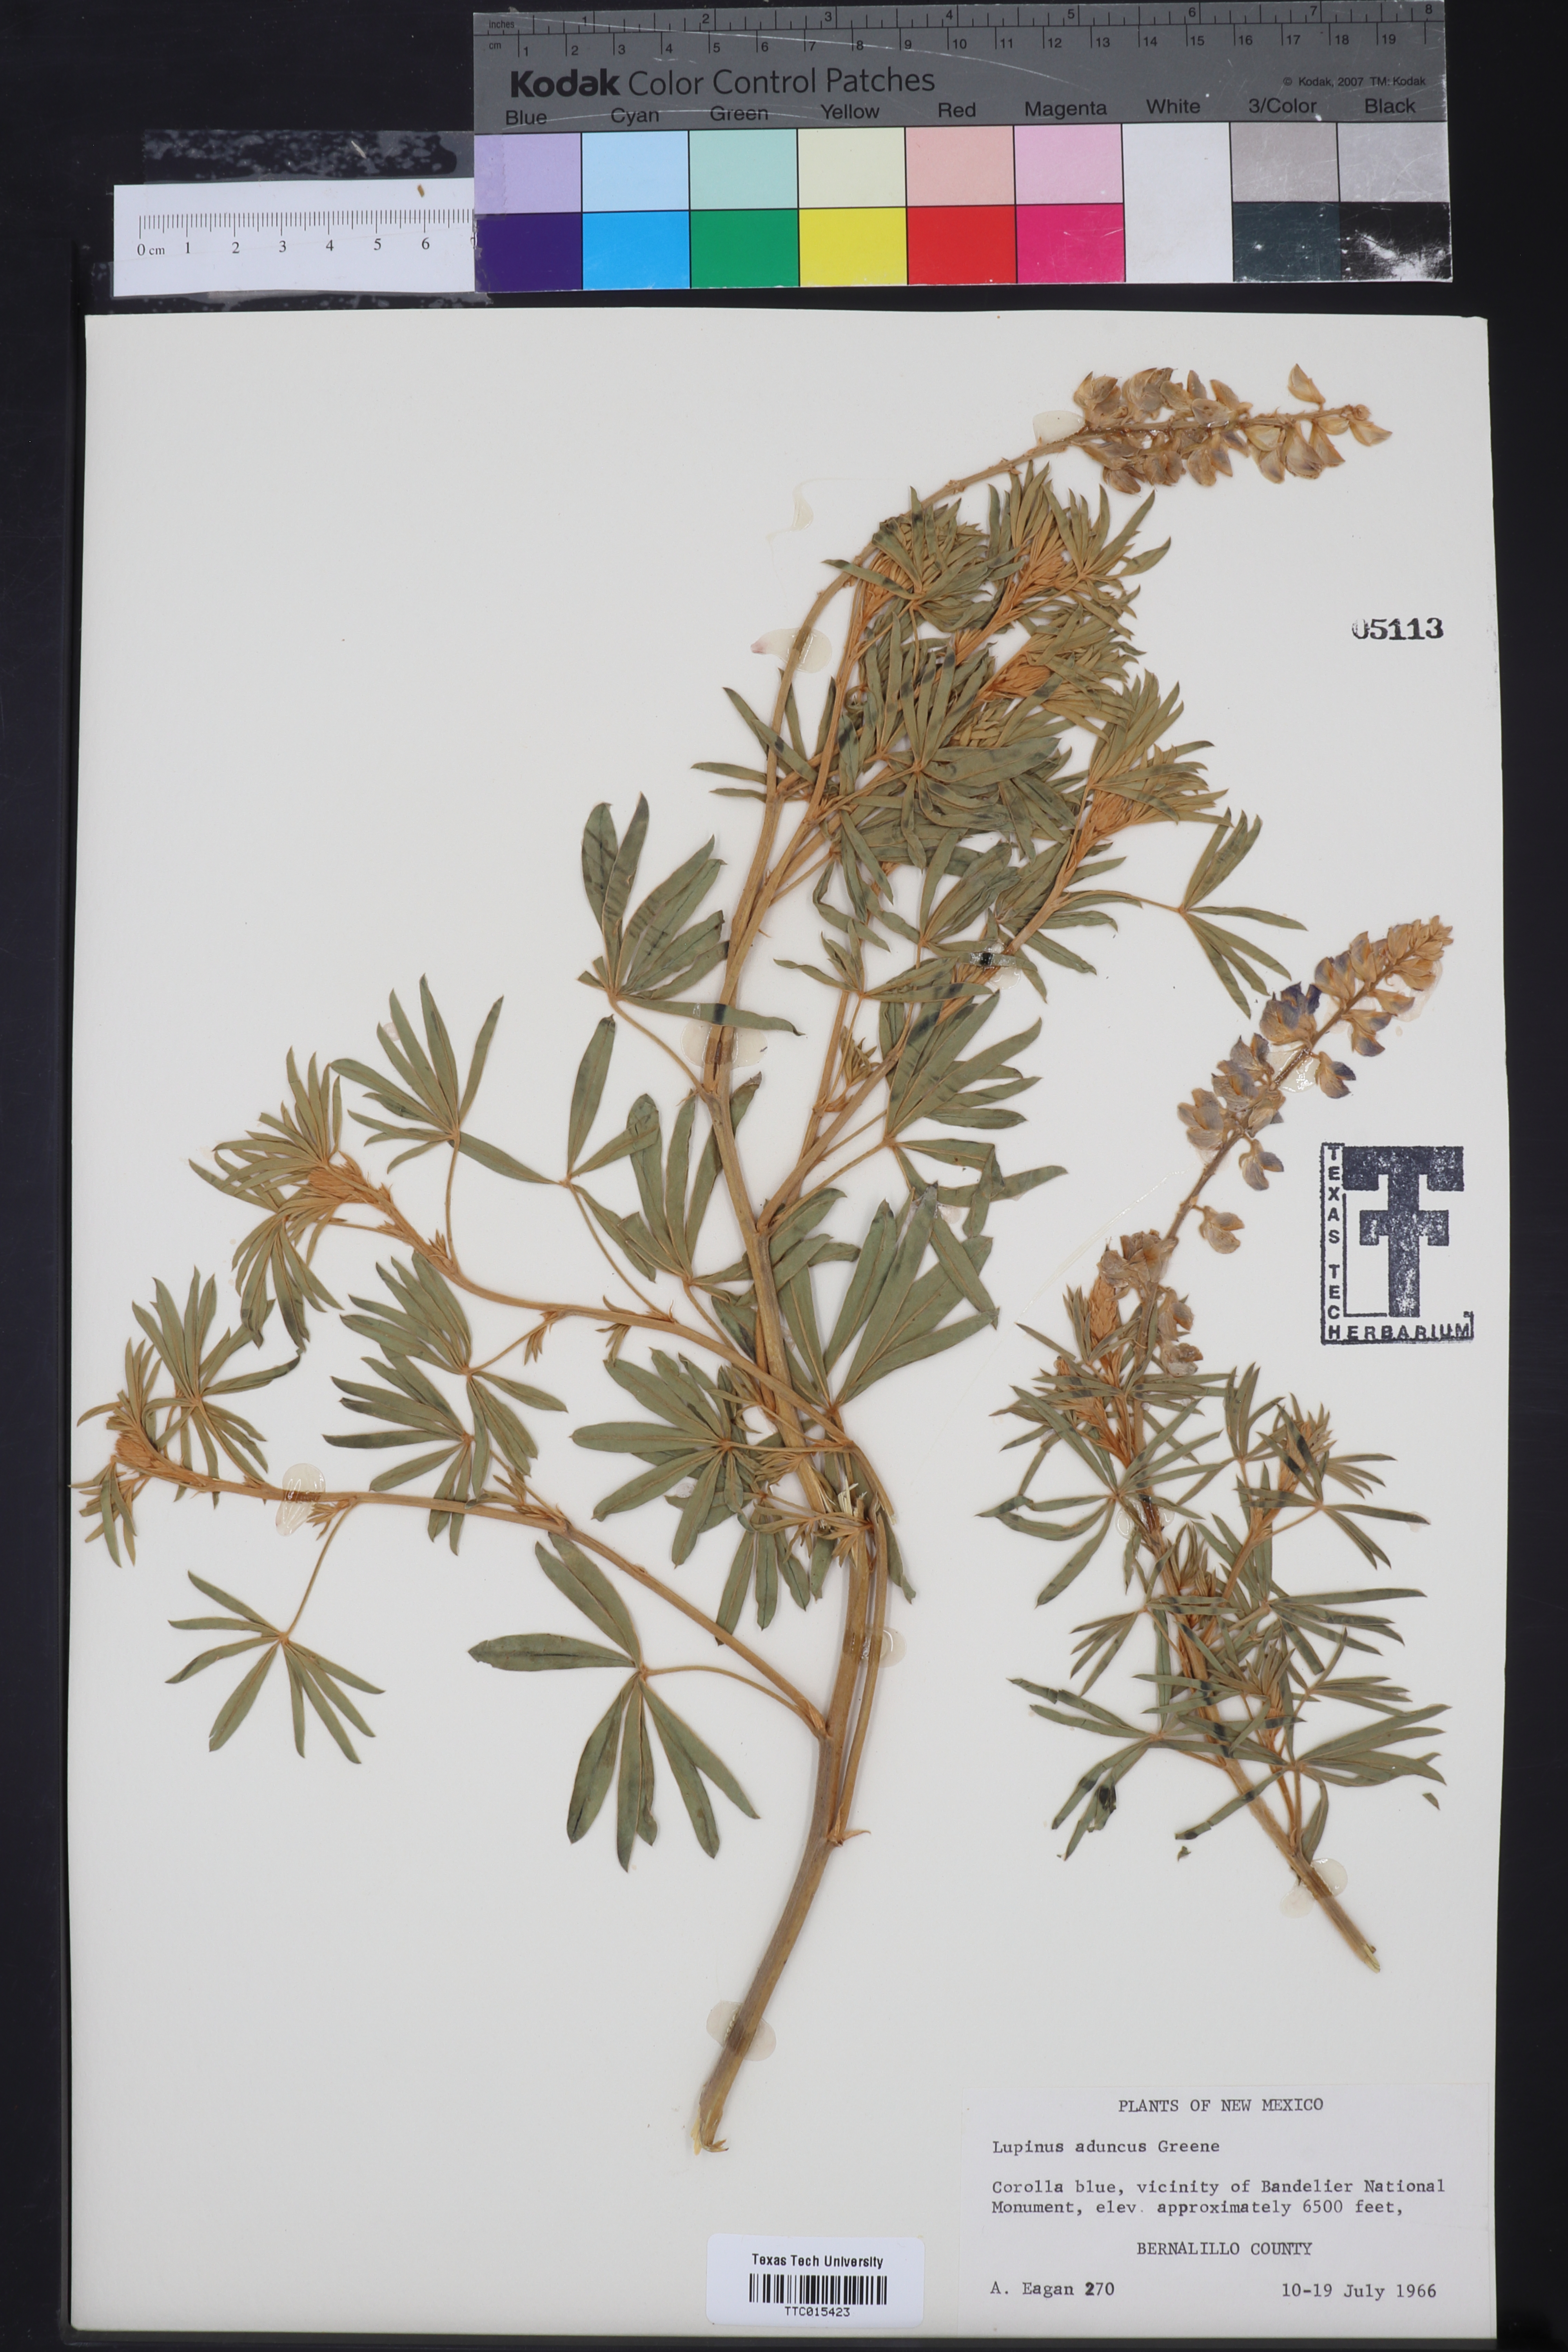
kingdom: Plantae
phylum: Tracheophyta
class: Magnoliopsida
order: Fabales
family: Fabaceae
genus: Lupinus
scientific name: Lupinus caudatus
